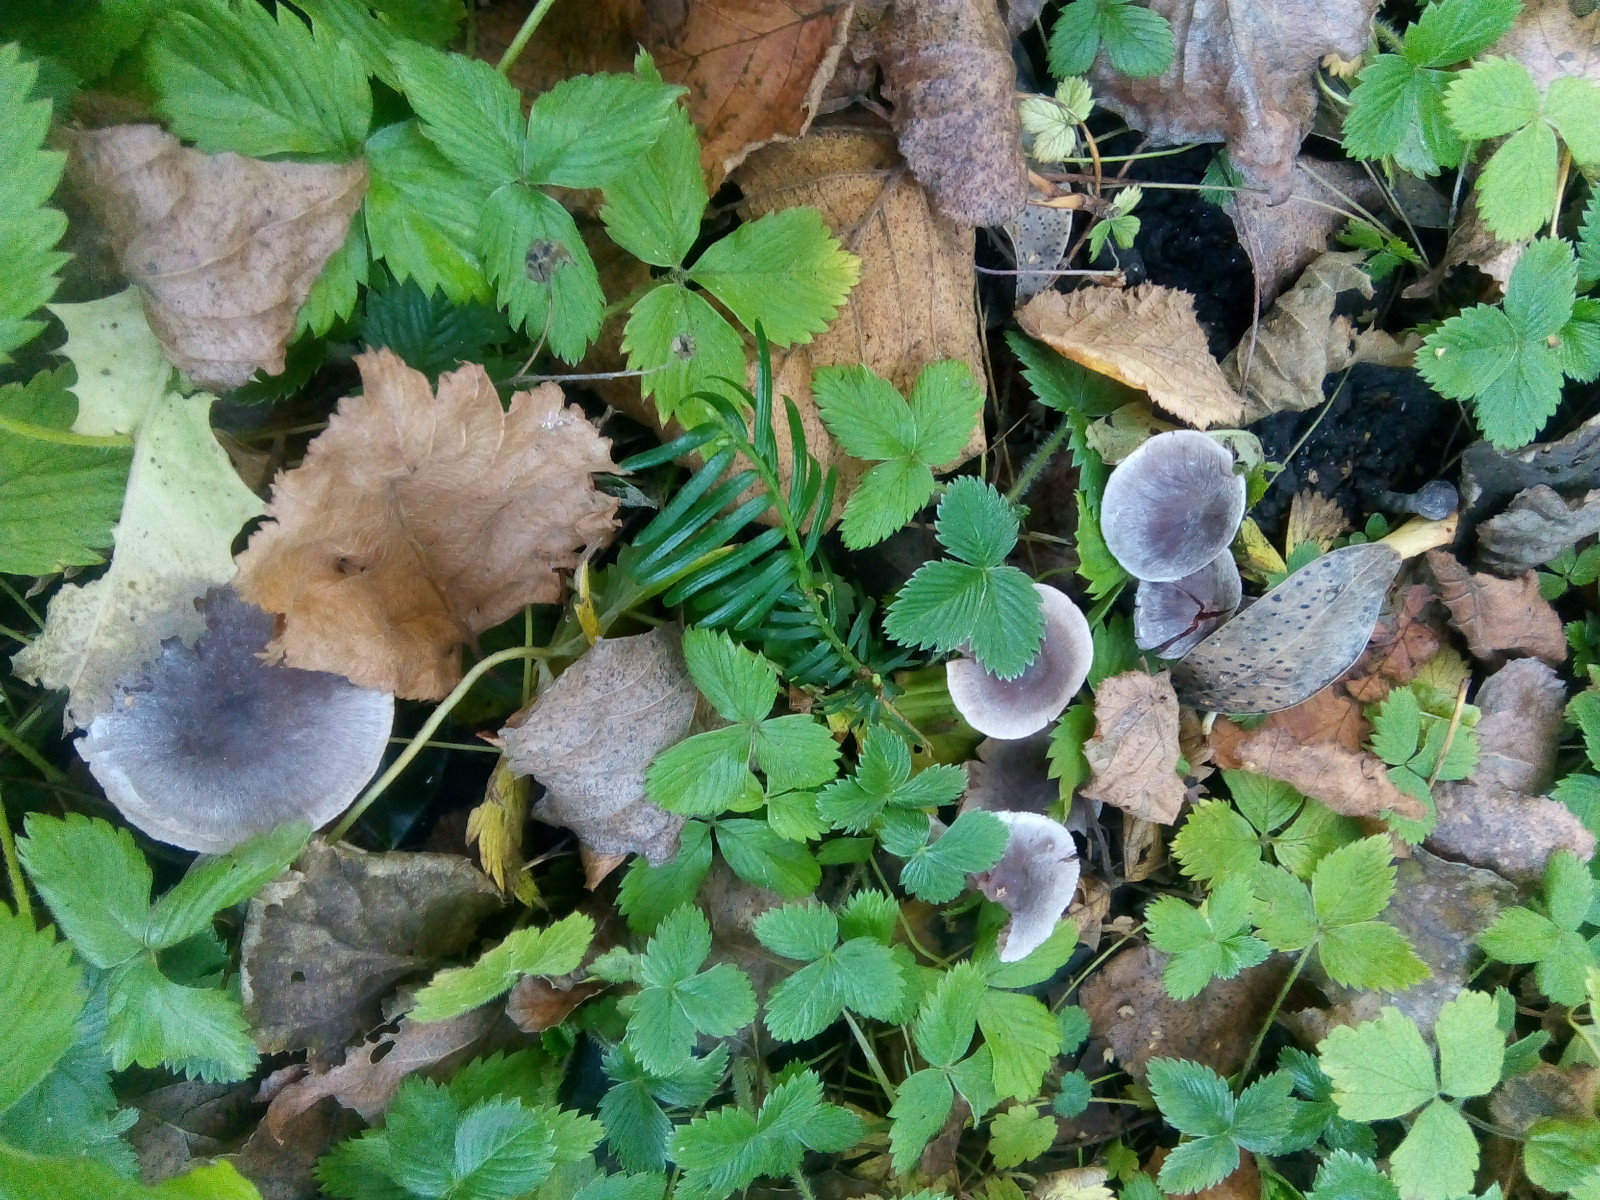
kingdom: Fungi
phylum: Basidiomycota
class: Agaricomycetes
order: Agaricales
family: Cortinariaceae
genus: Cortinarius
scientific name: Cortinarius decipiens
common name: blåsort slørhat
